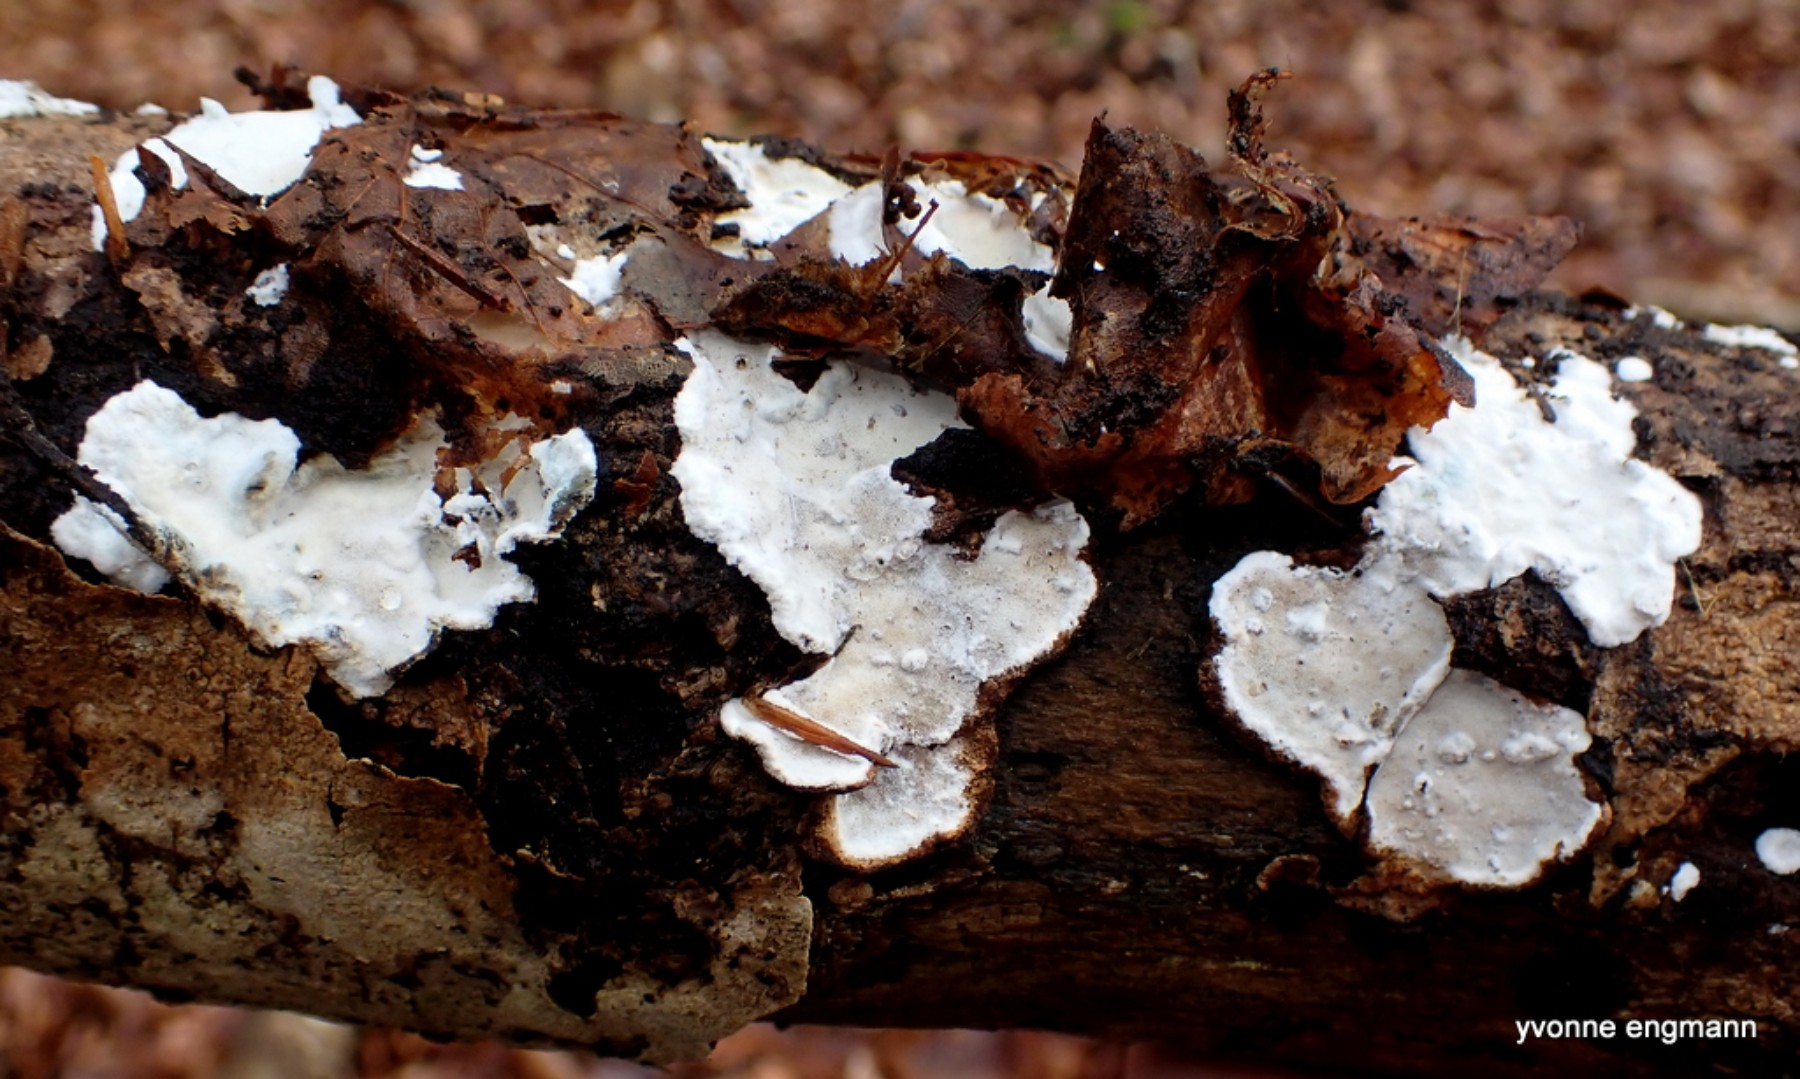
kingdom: Fungi
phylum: Basidiomycota
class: Agaricomycetes
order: Polyporales
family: Incrustoporiaceae
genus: Skeletocutis
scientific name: Skeletocutis nemoralis
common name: stor krystalporesvamp
